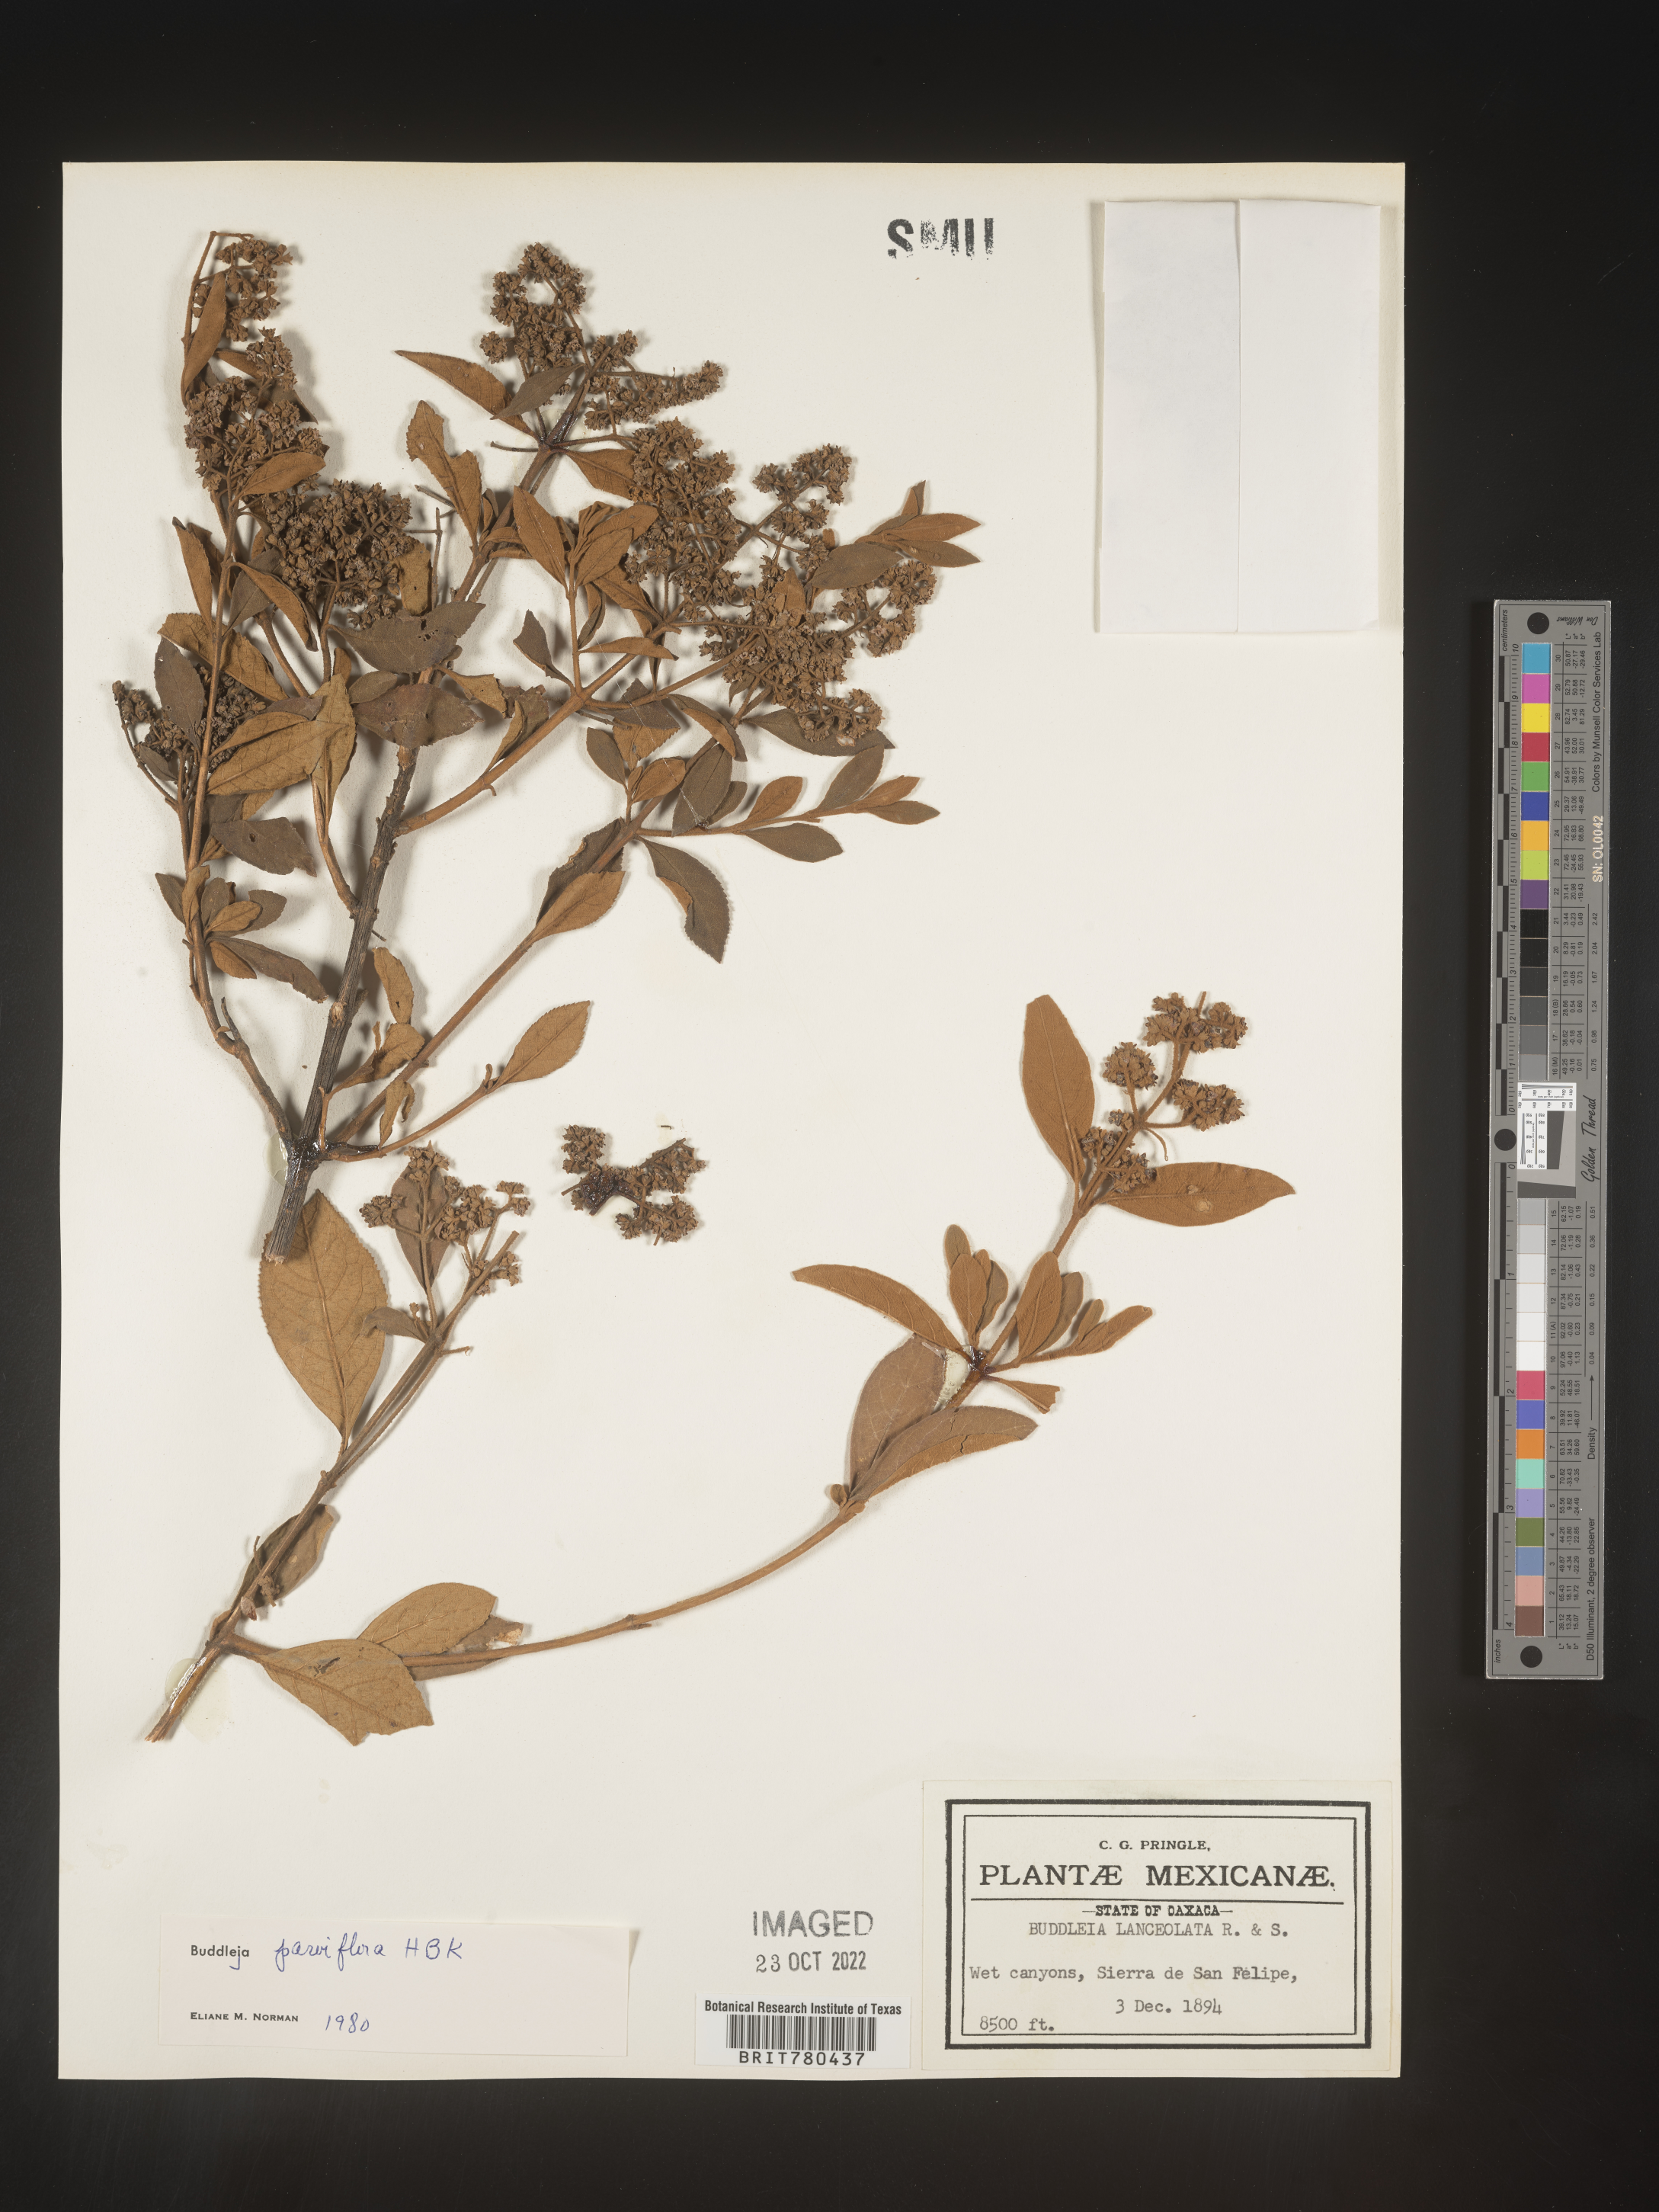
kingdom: Plantae
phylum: Tracheophyta
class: Magnoliopsida
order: Lamiales
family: Scrophulariaceae
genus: Buddleja
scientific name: Buddleja parviflora
